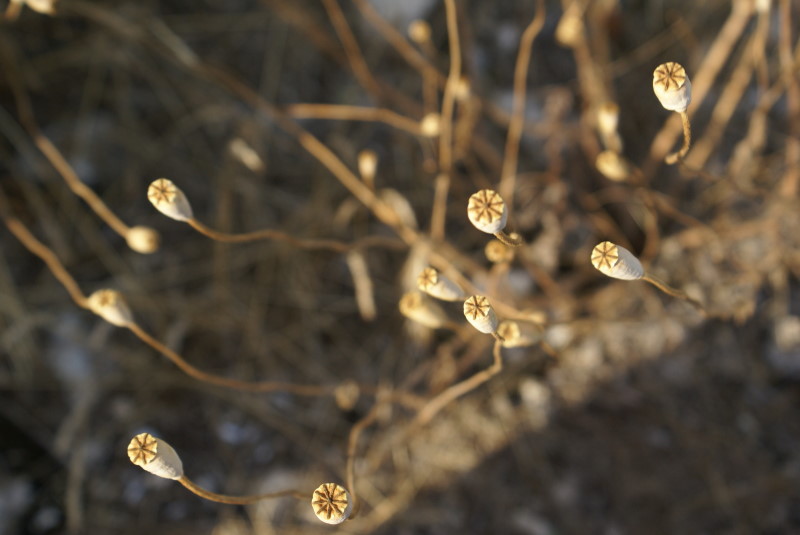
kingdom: Plantae
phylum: Tracheophyta
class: Magnoliopsida
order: Ranunculales
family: Papaveraceae
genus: Papaver
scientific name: Papaver
